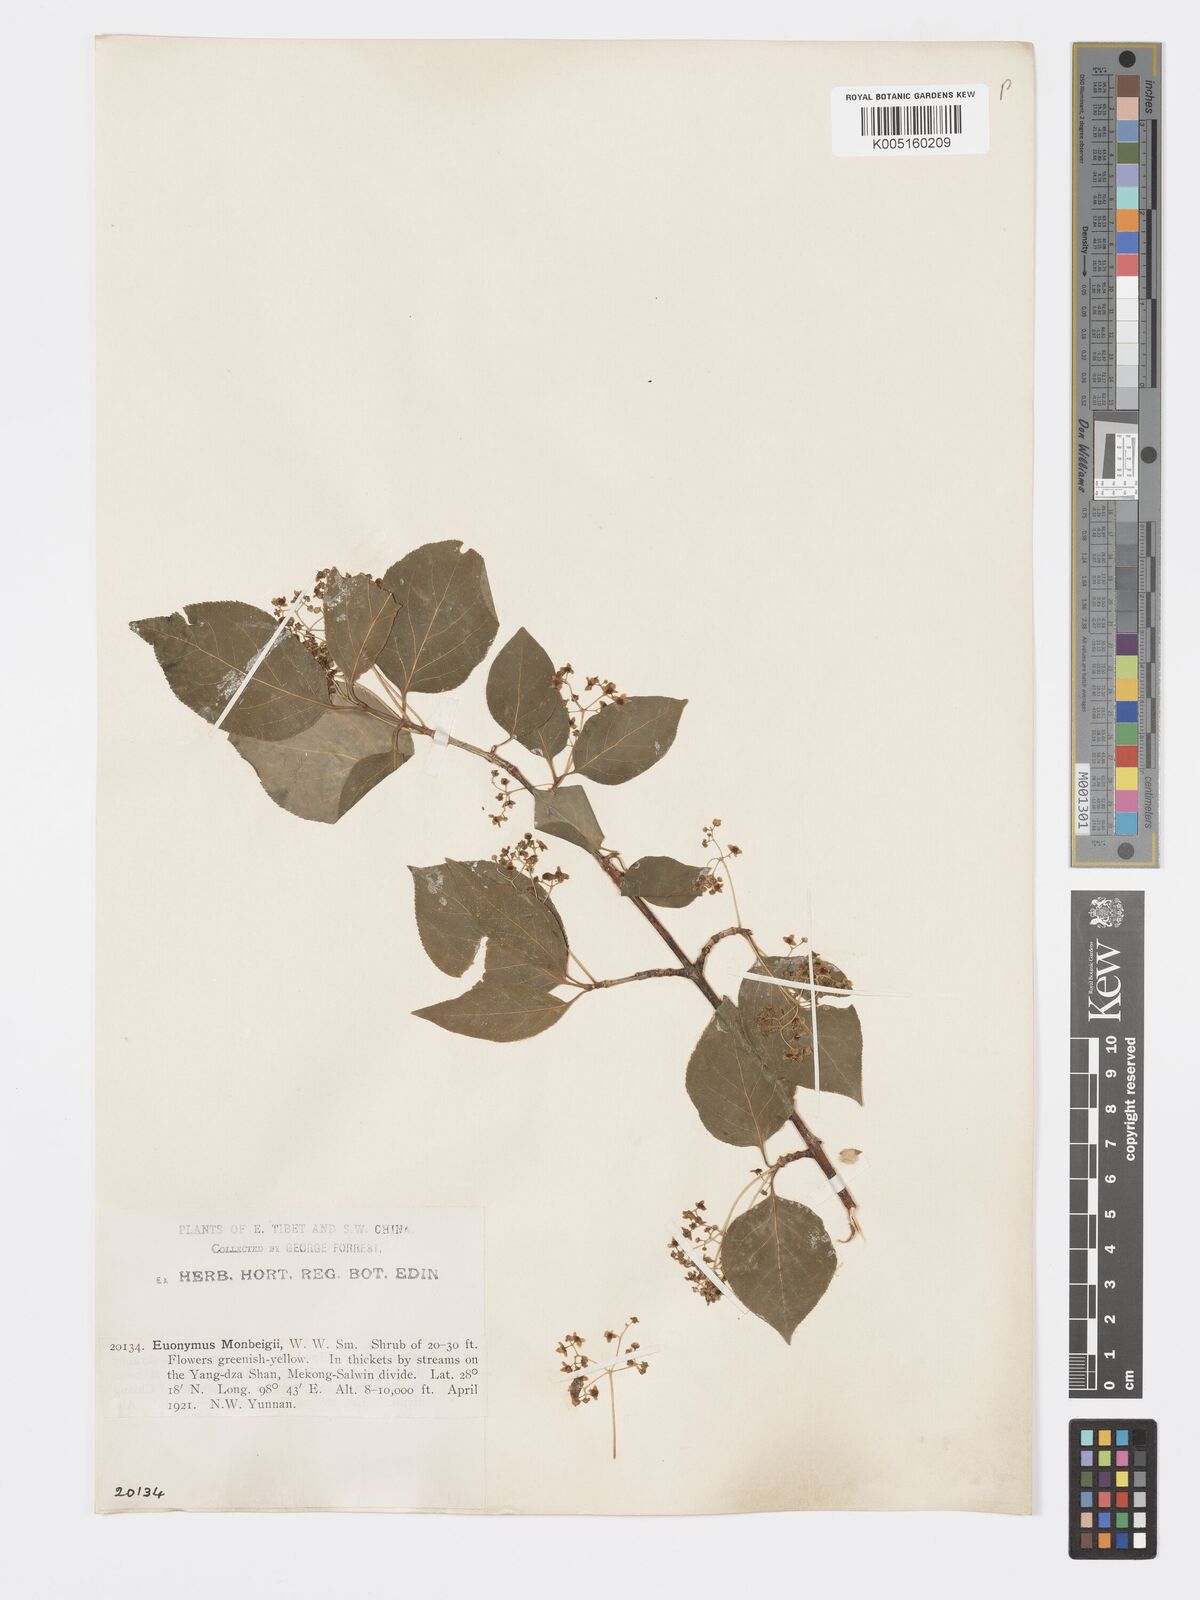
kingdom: Plantae
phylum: Tracheophyta
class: Magnoliopsida
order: Celastrales
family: Celastraceae
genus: Euonymus
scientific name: Euonymus sanguineus
